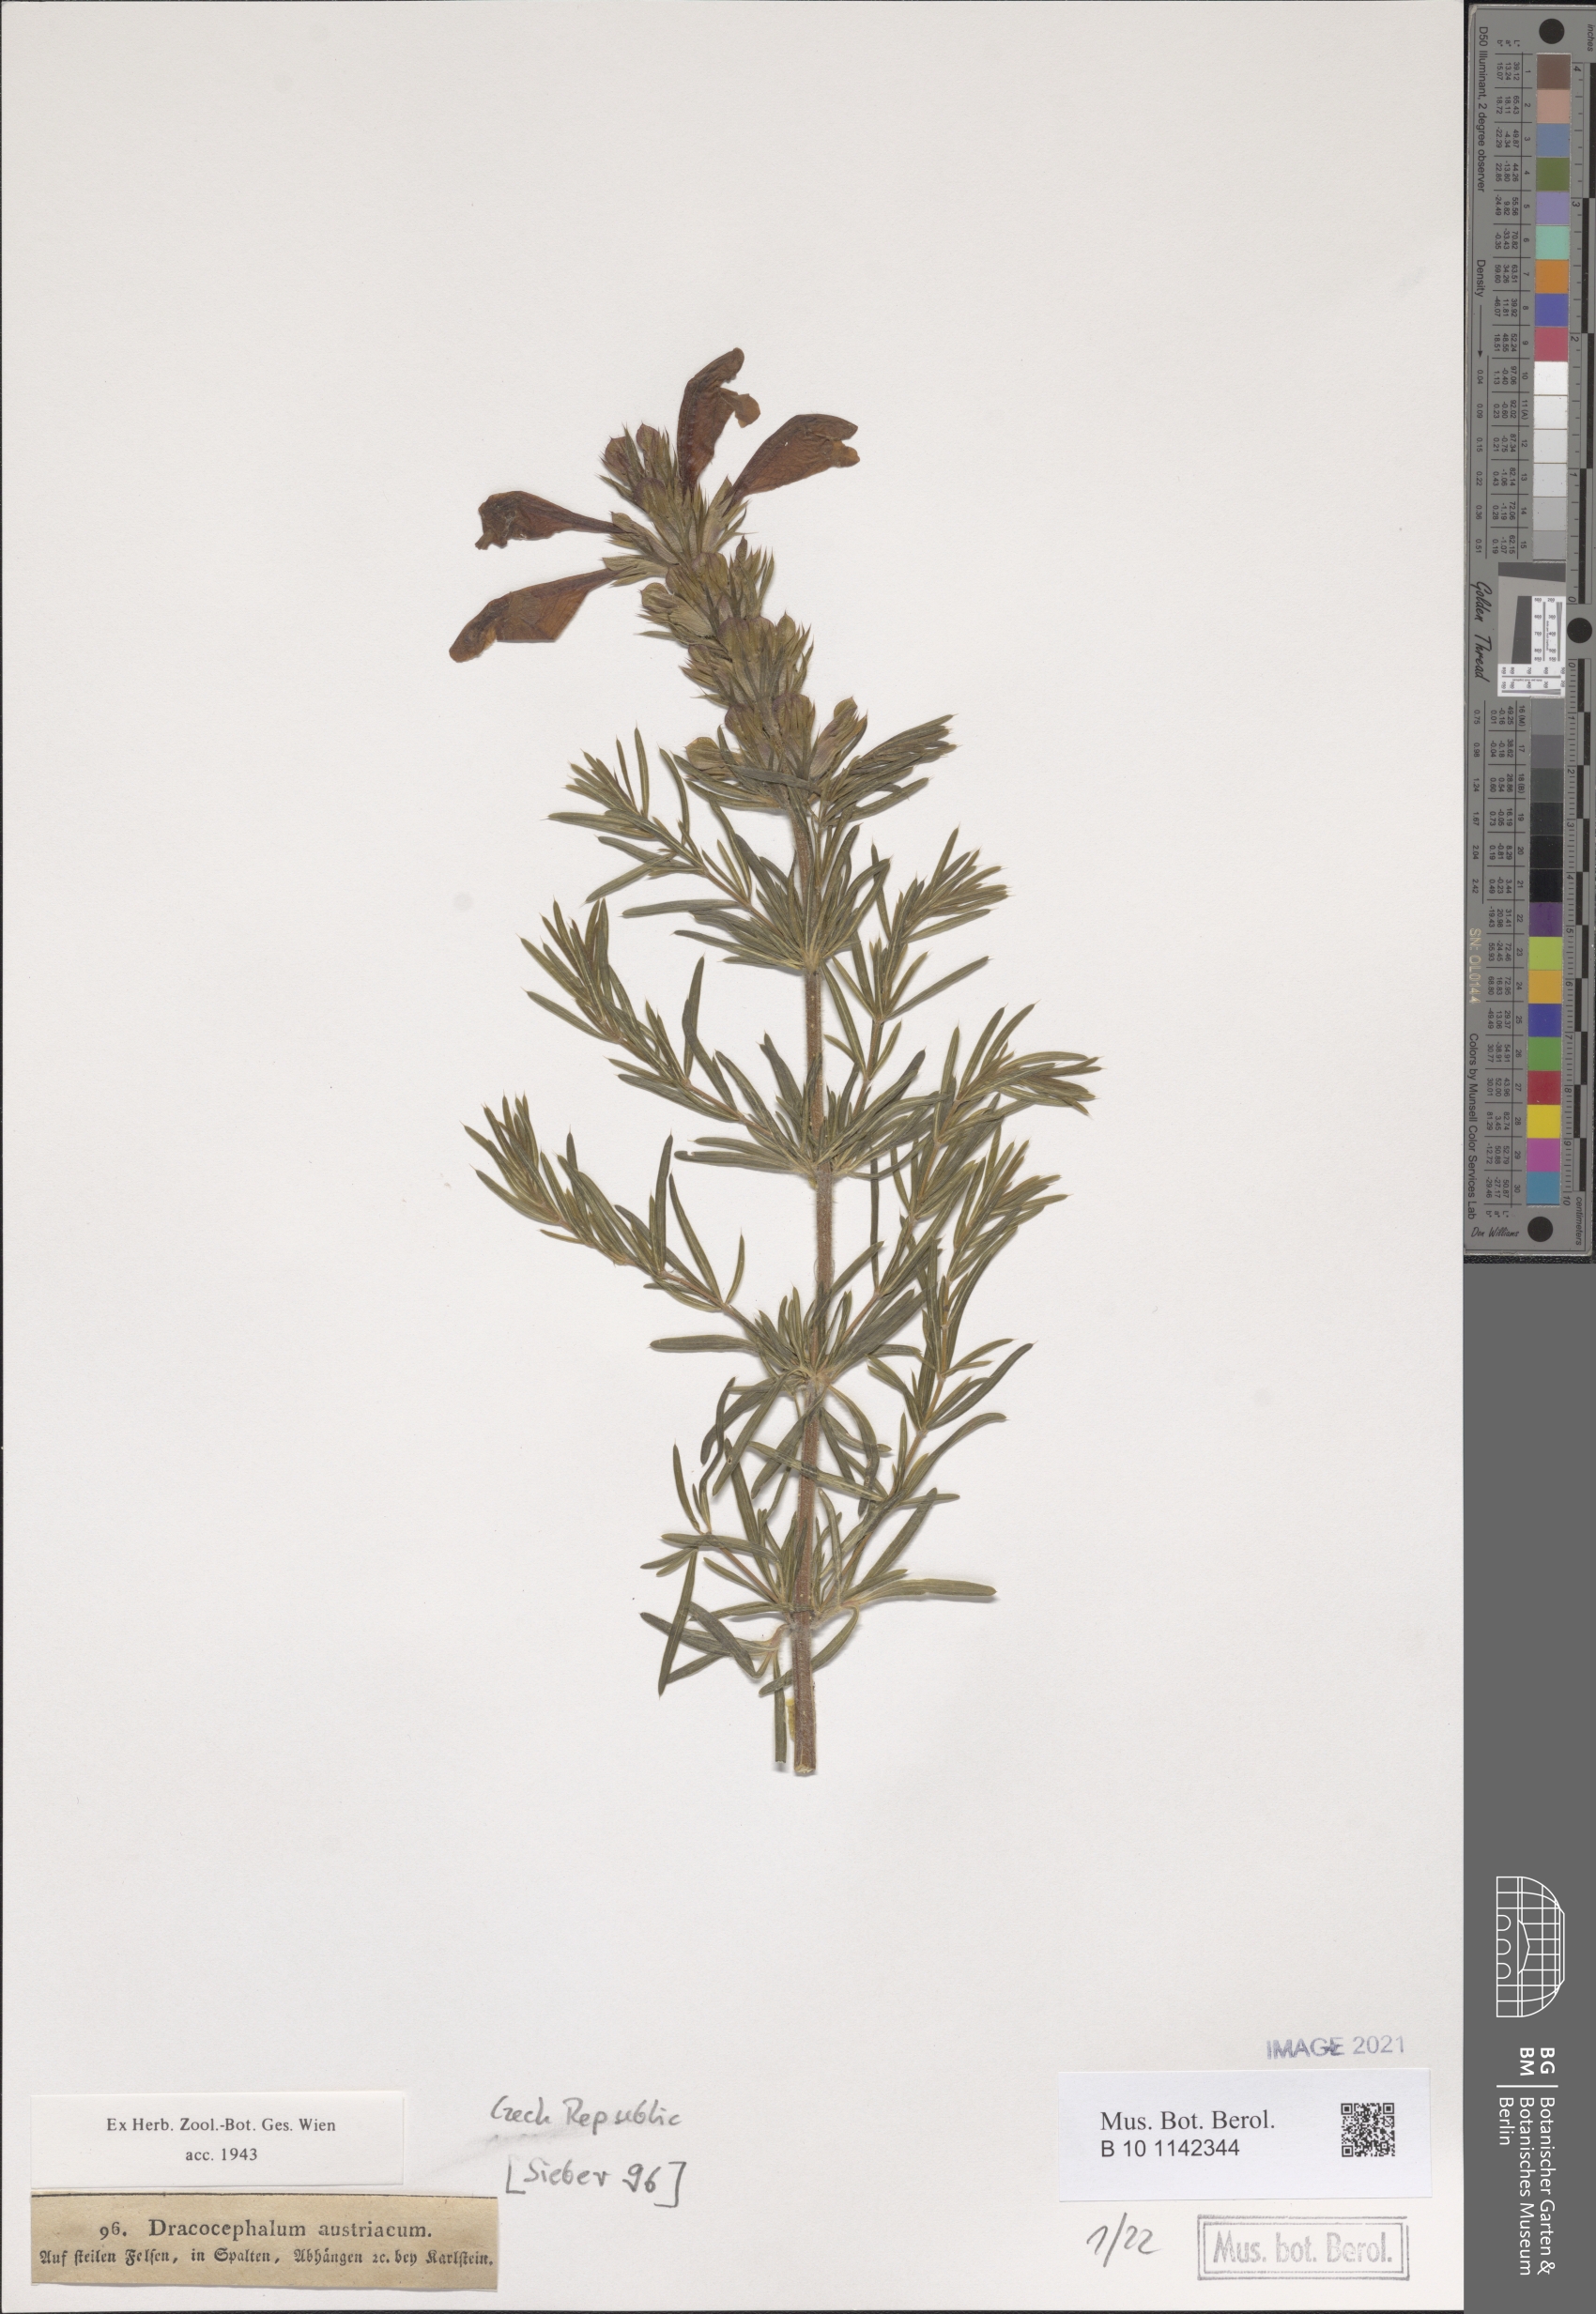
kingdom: Plantae
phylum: Tracheophyta
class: Magnoliopsida
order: Lamiales
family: Lamiaceae
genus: Dracocephalum
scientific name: Dracocephalum austriacum
